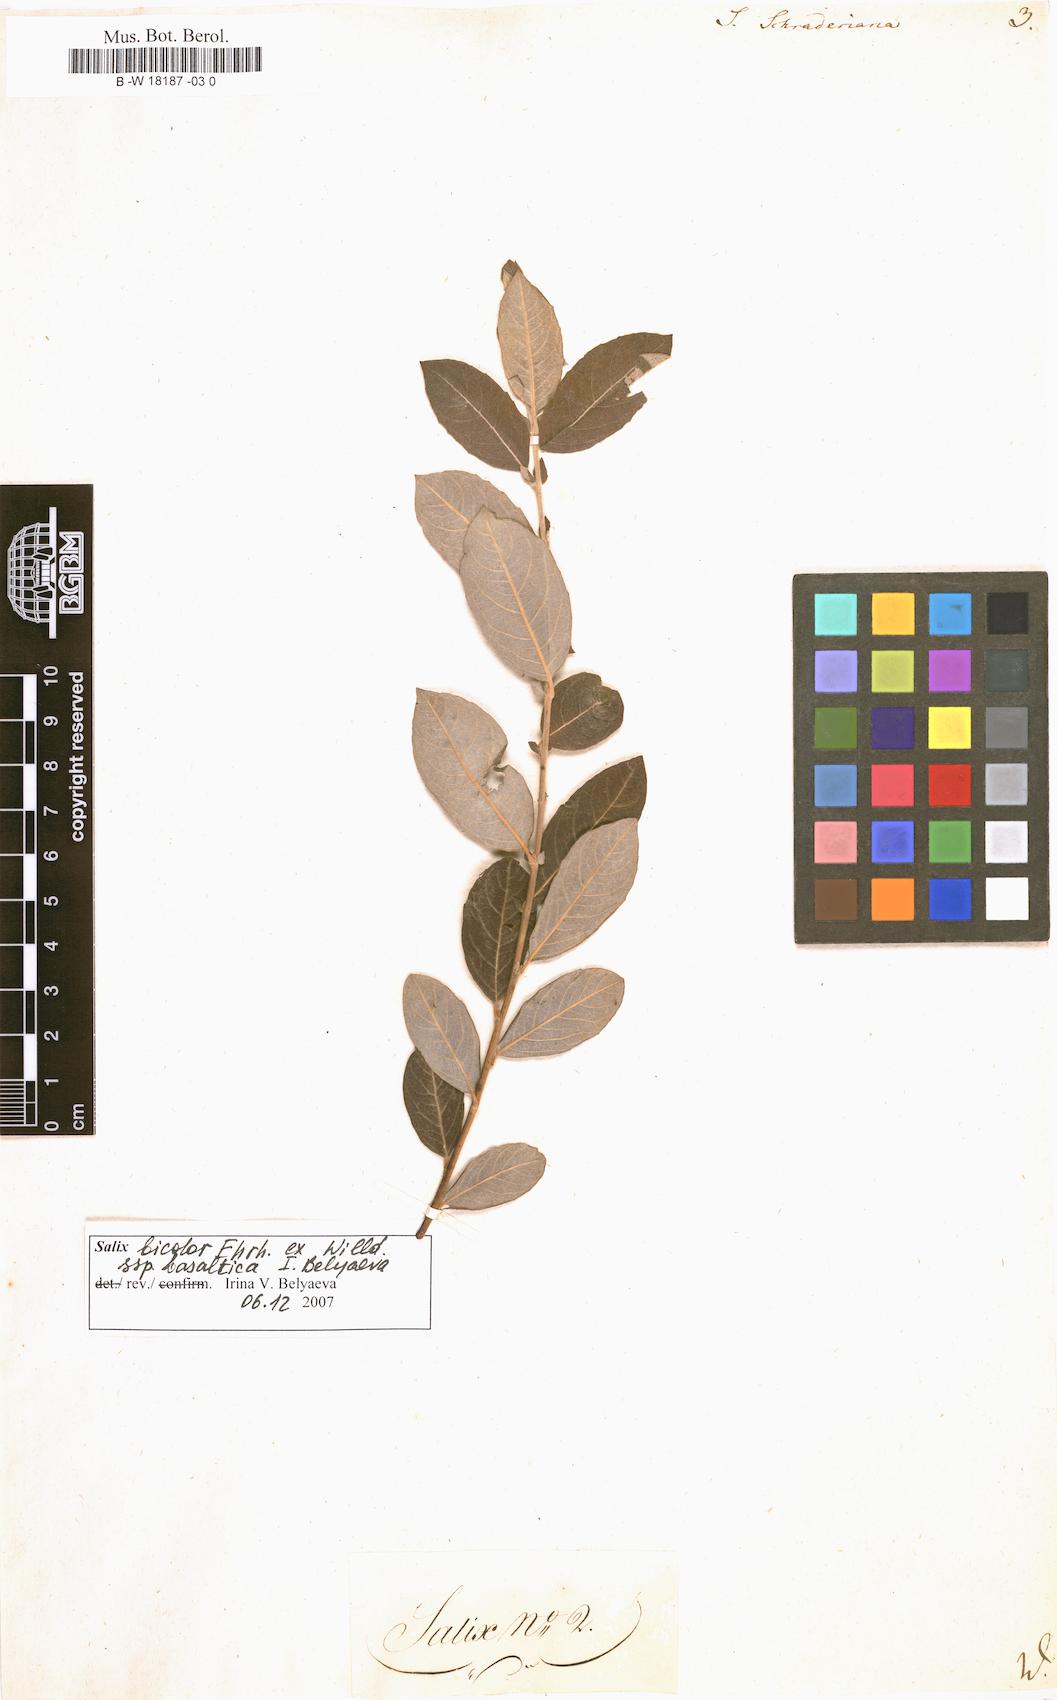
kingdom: Plantae
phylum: Tracheophyta
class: Magnoliopsida
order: Malpighiales
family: Salicaceae
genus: Salix
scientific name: Salix bicolor
